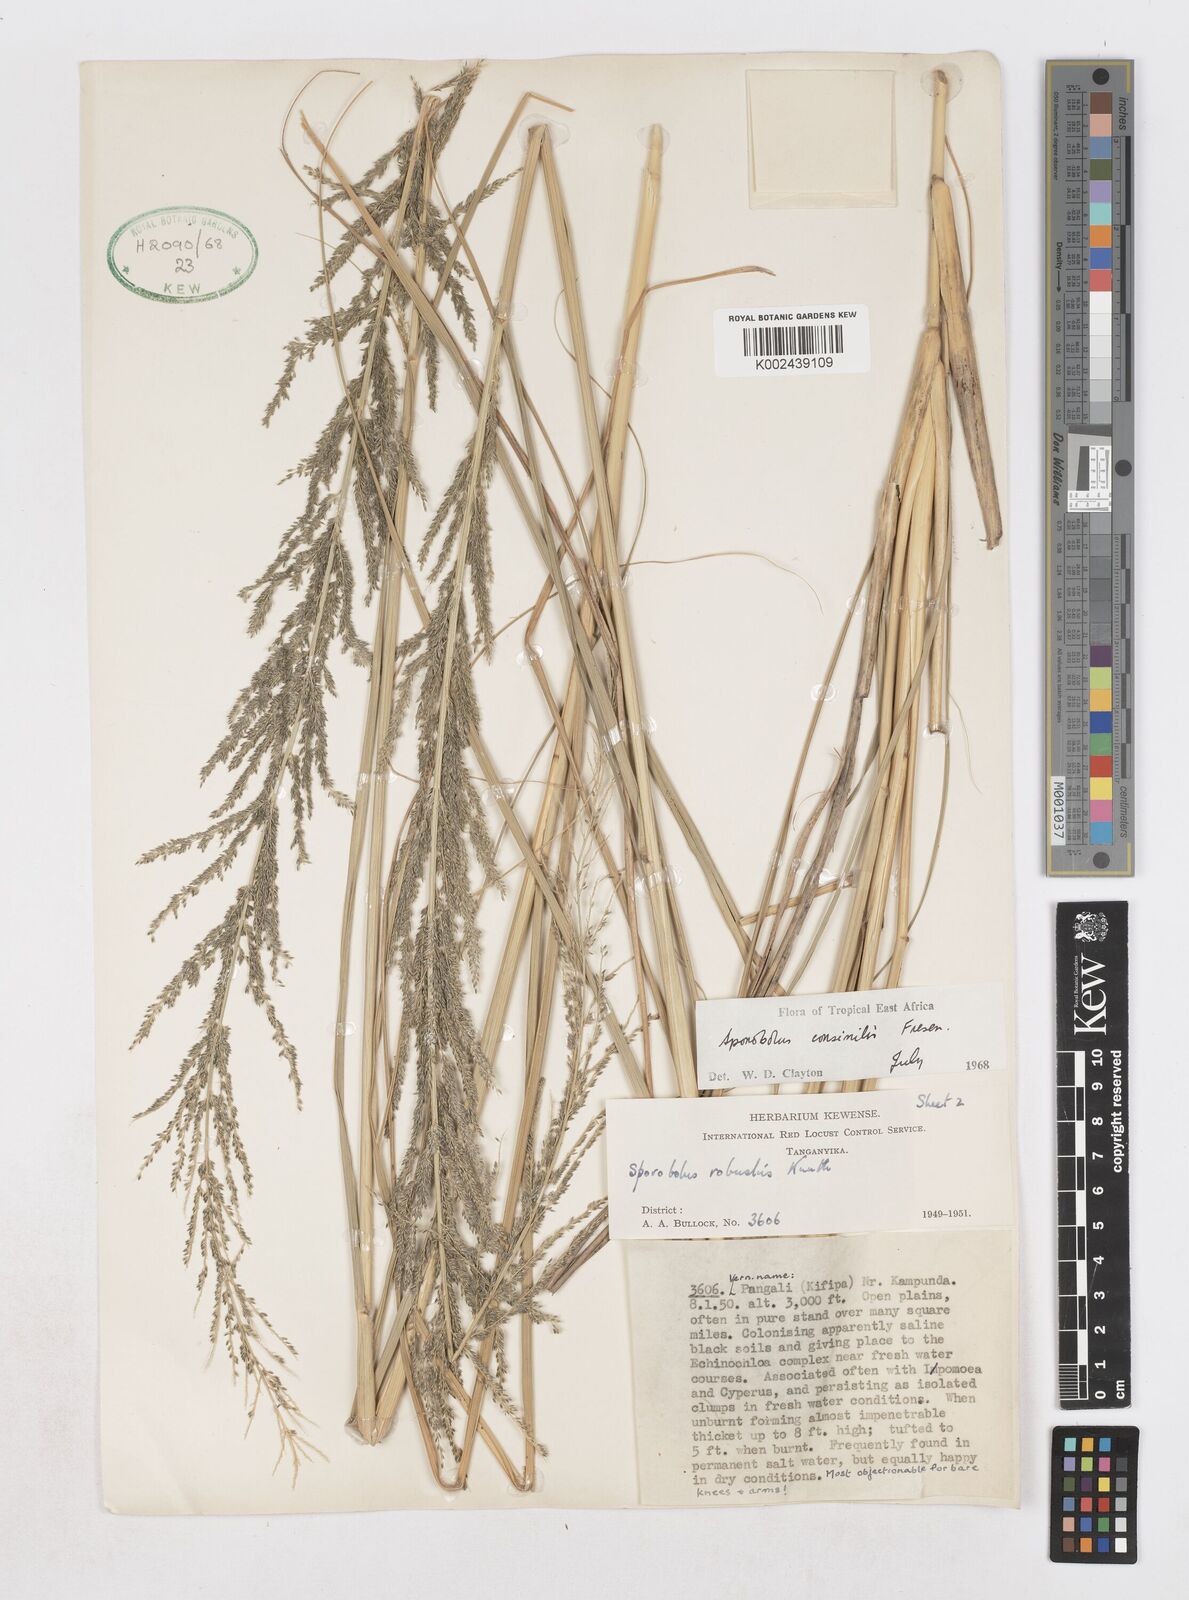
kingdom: Plantae
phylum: Tracheophyta
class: Liliopsida
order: Poales
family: Poaceae
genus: Sporobolus
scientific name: Sporobolus consimilis
